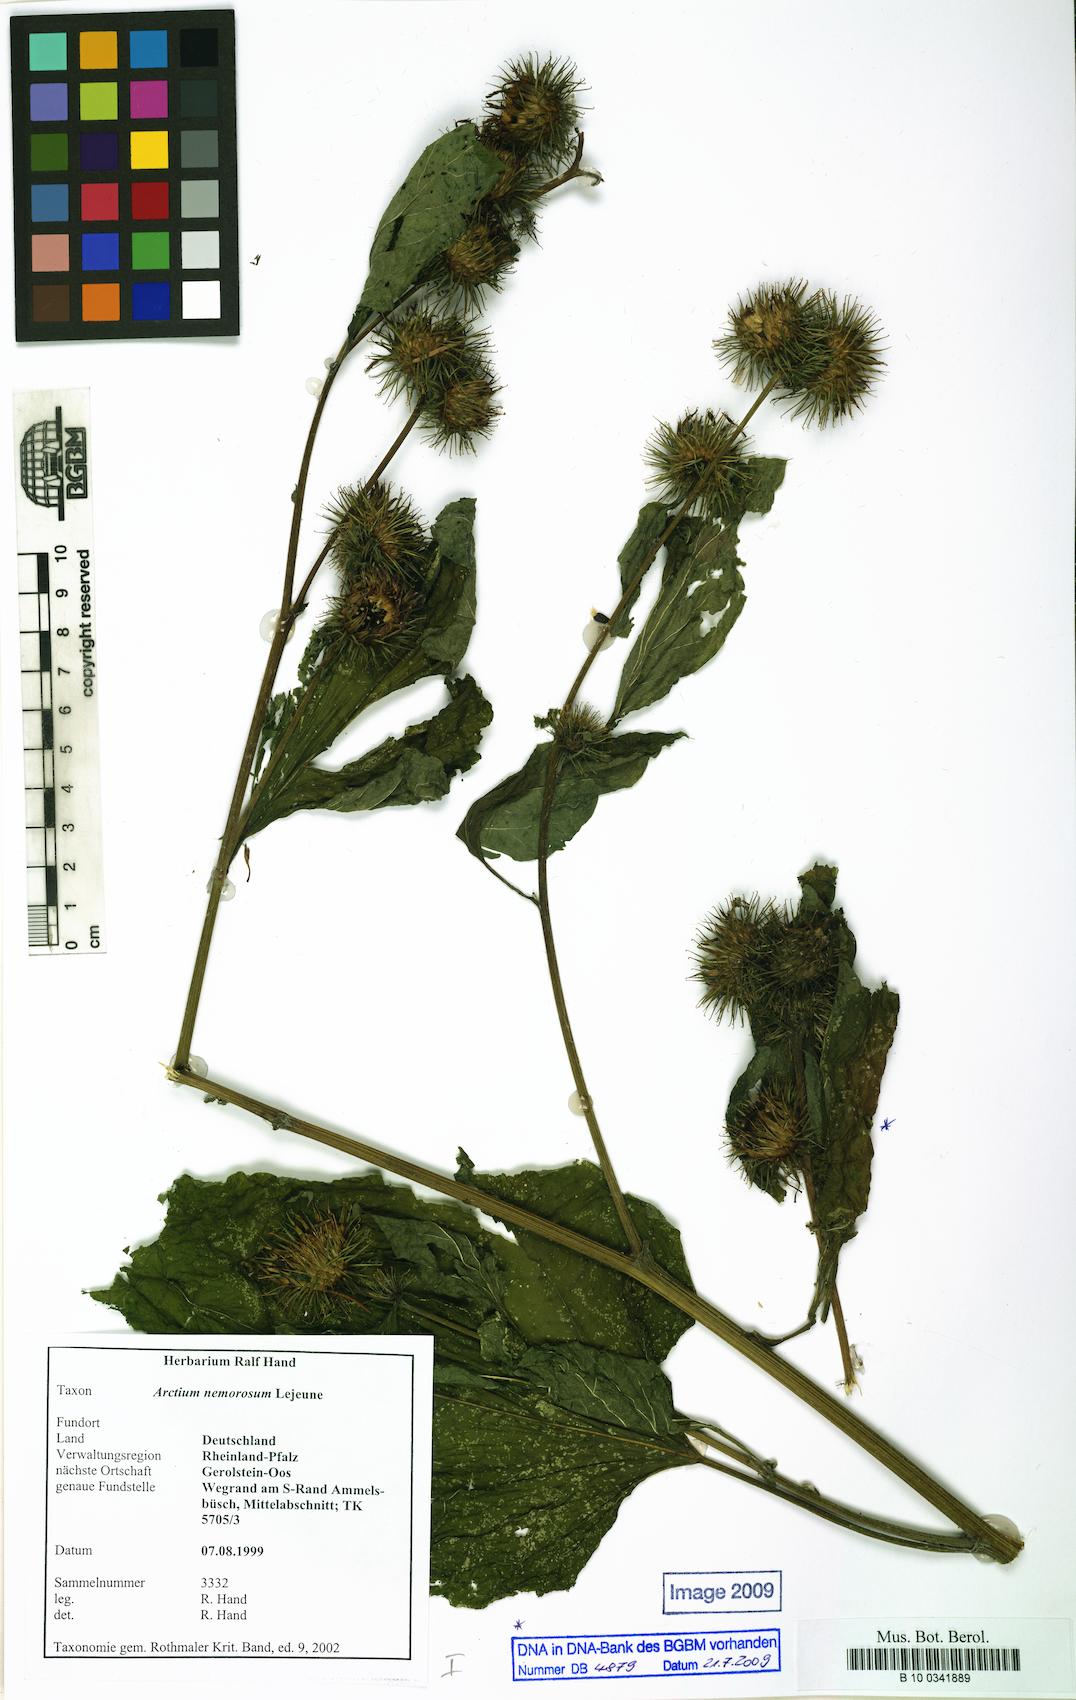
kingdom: Plantae
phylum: Tracheophyta
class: Magnoliopsida
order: Asterales
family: Asteraceae
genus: Arctium
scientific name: Arctium nemorosum
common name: Wood burdock
